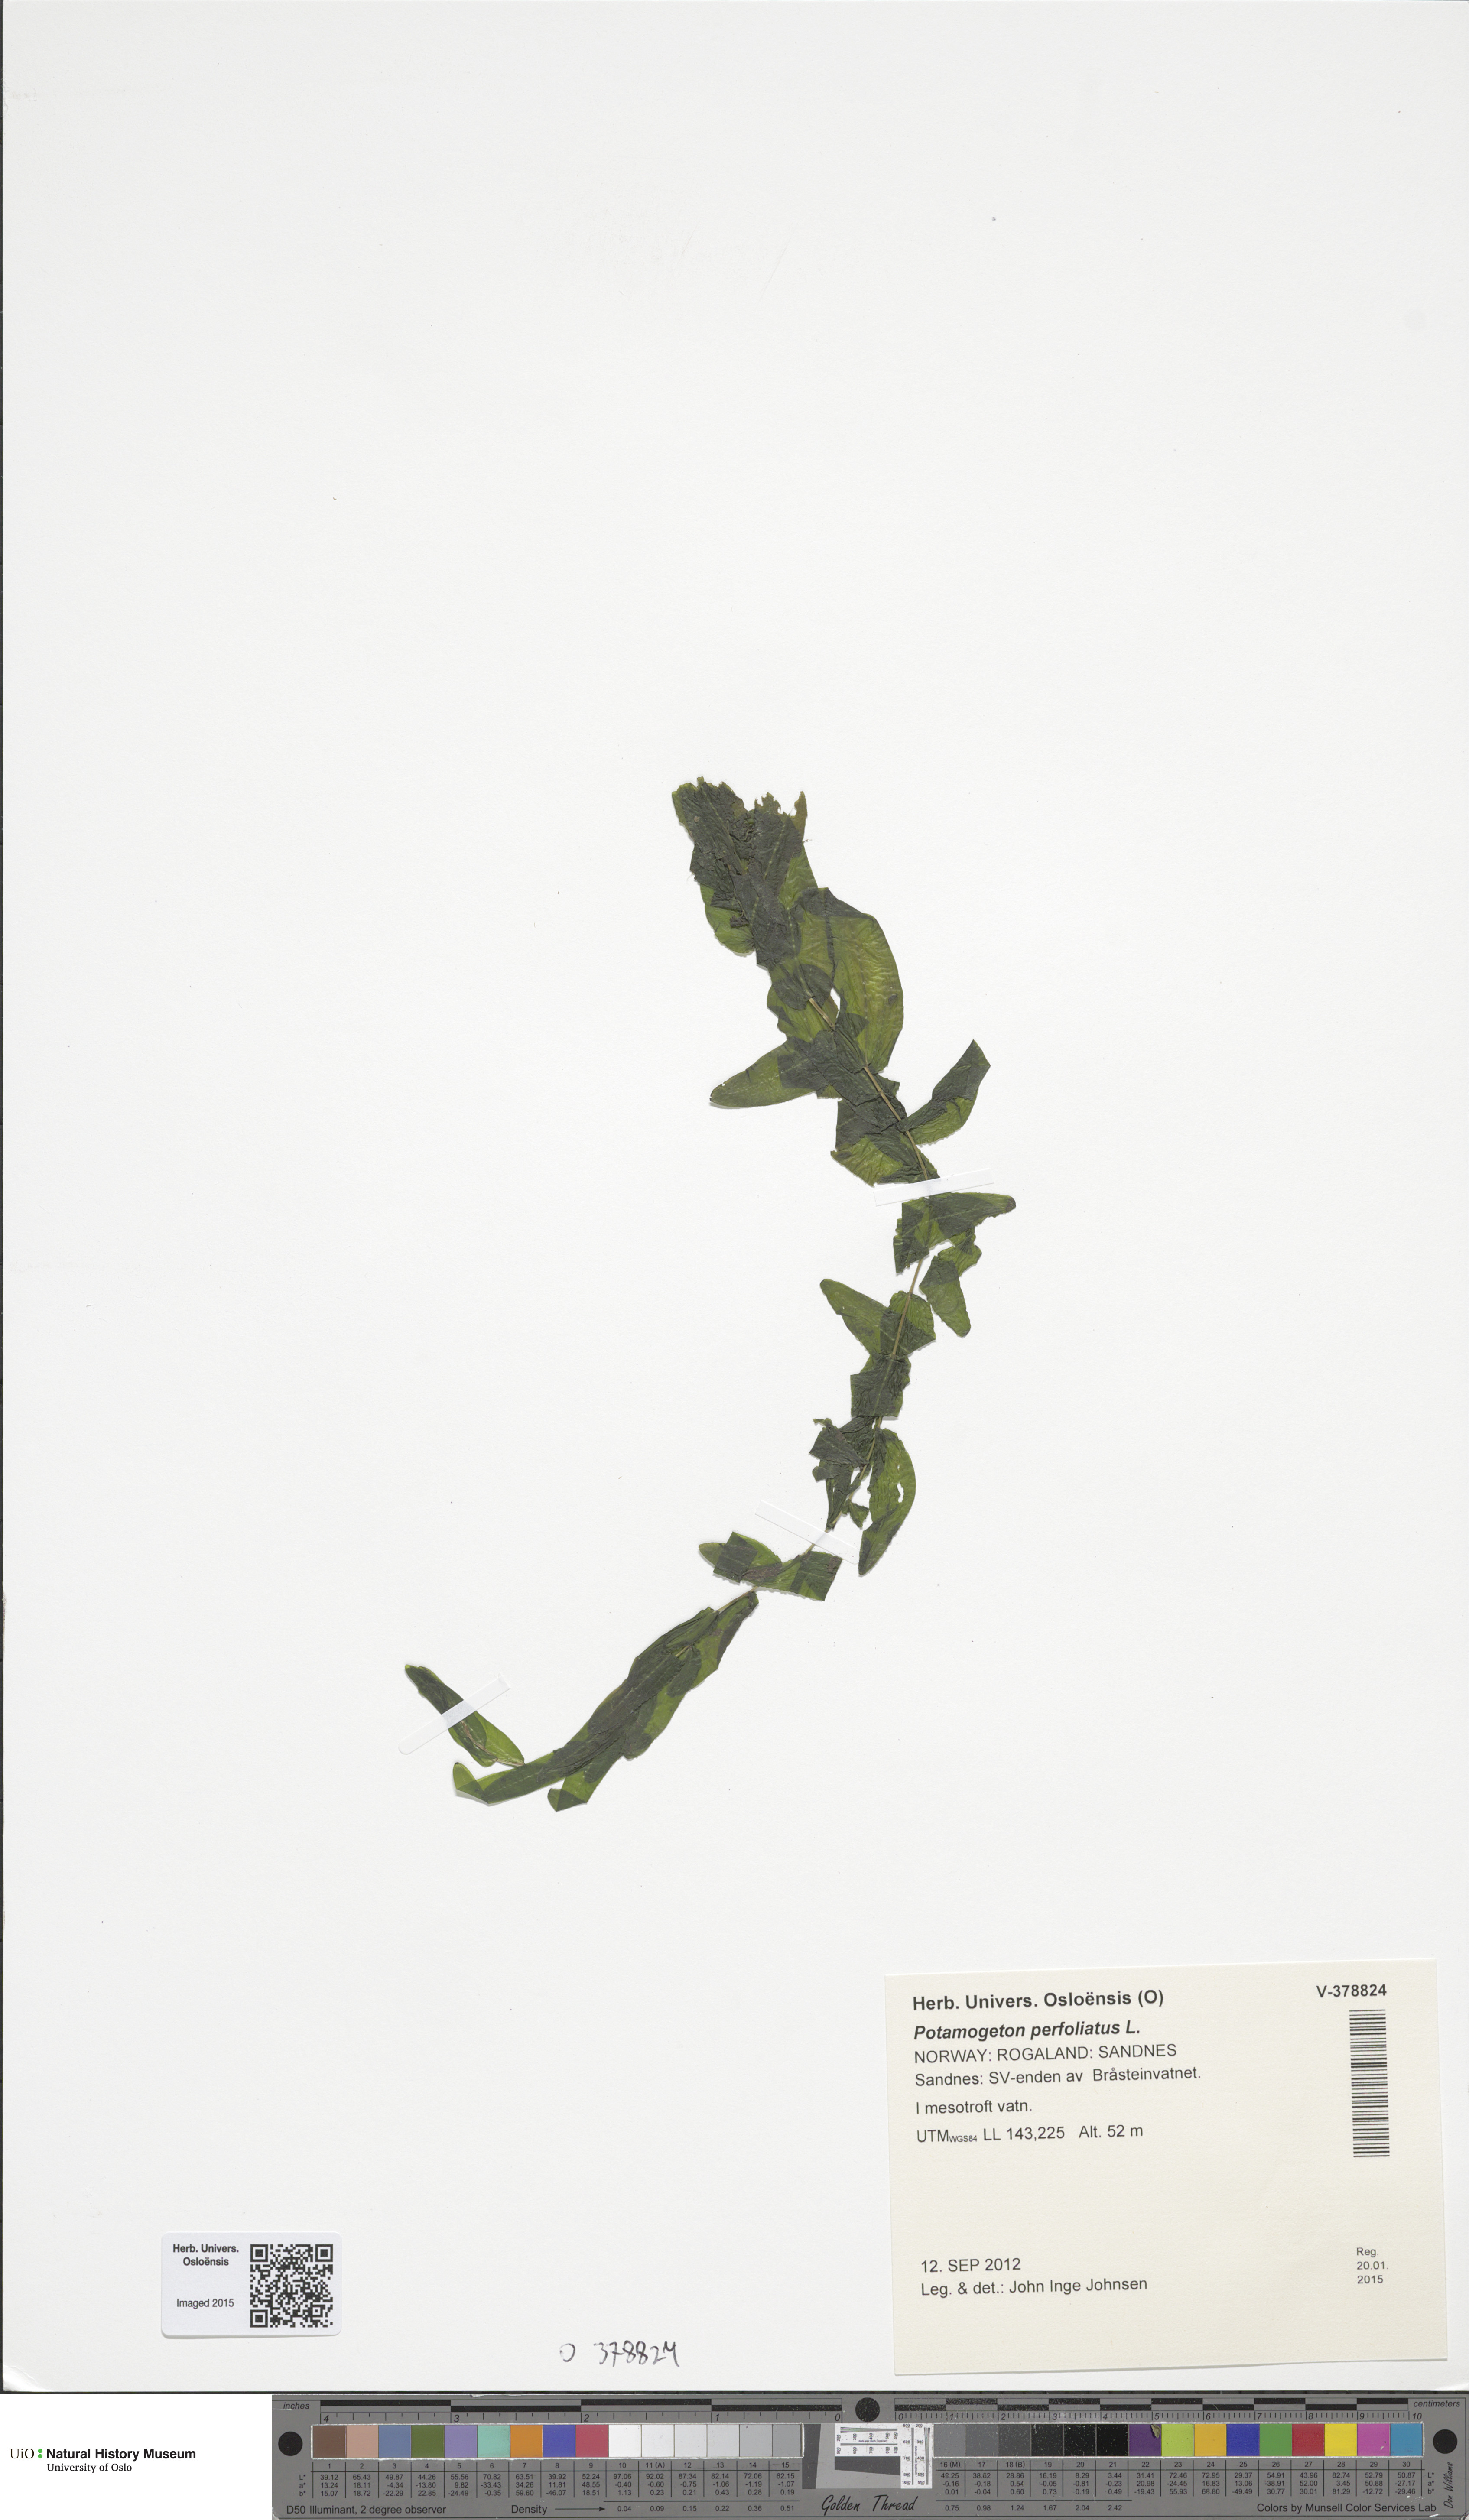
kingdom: Plantae
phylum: Tracheophyta
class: Liliopsida
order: Alismatales
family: Potamogetonaceae
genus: Potamogeton
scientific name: Potamogeton perfoliatus
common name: Perfoliate pondweed
